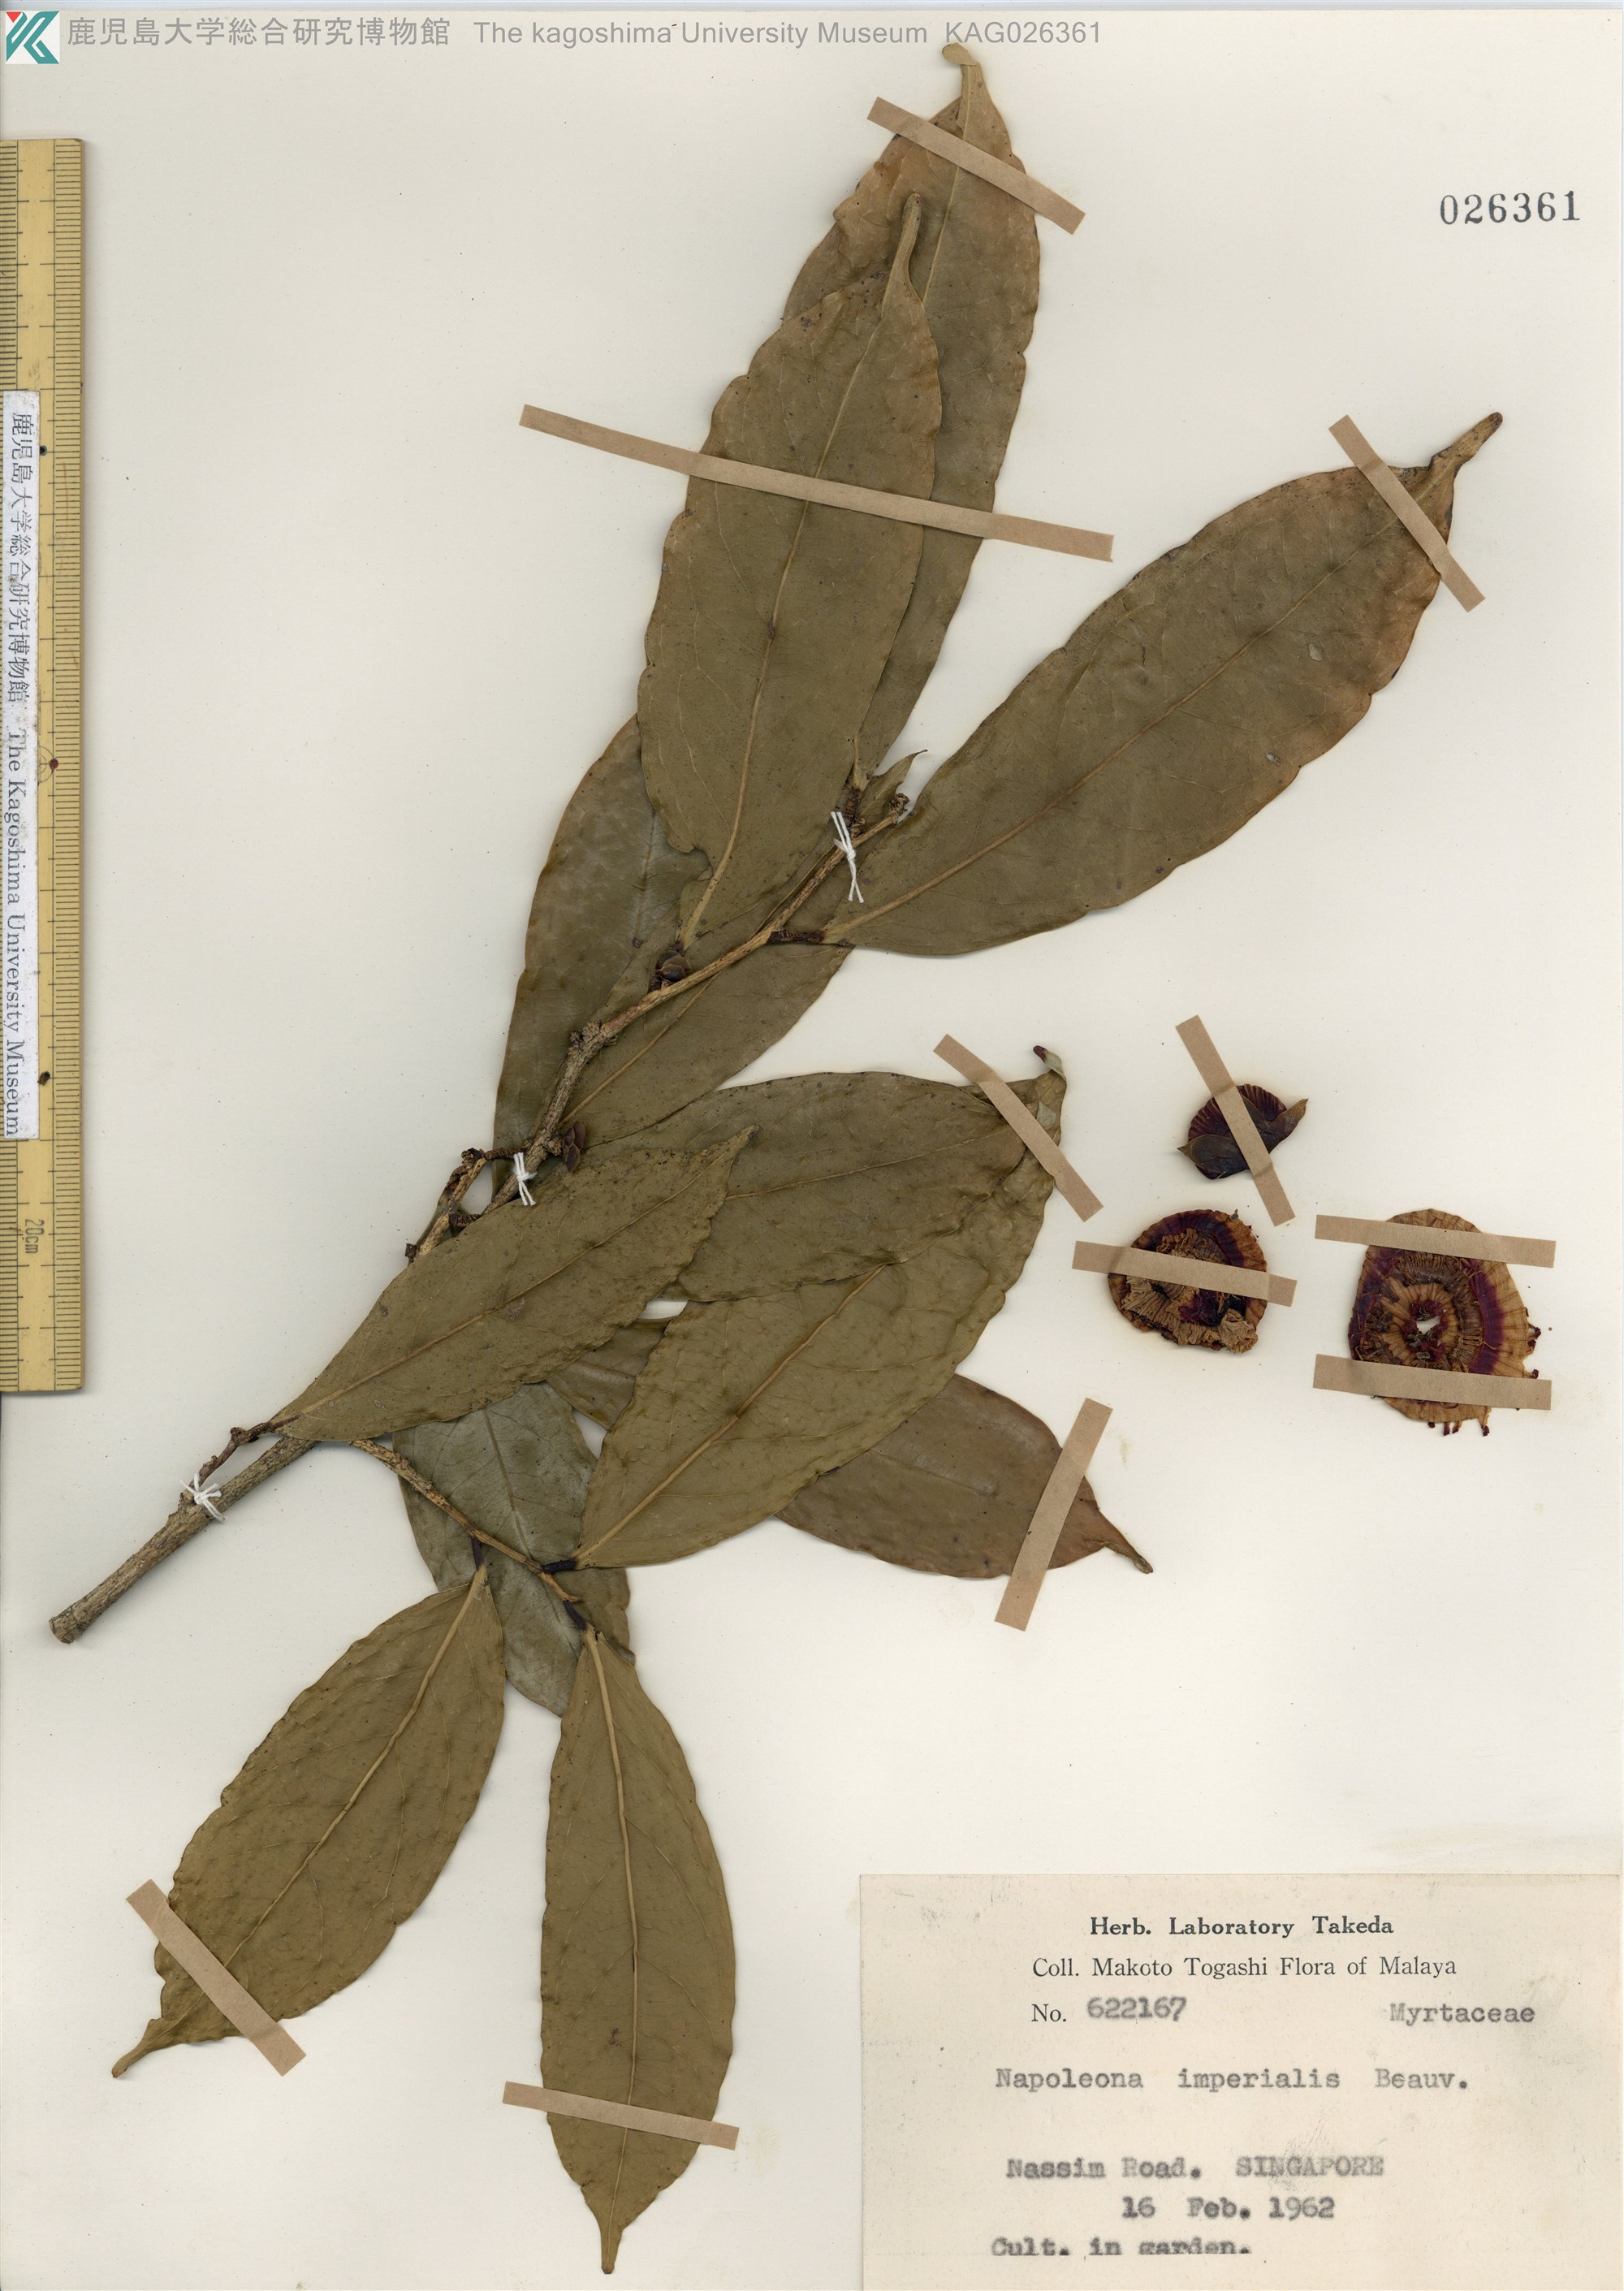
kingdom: Plantae
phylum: Tracheophyta
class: Magnoliopsida
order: Ericales
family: Lecythidaceae
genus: Napoleonaea
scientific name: Napoleonaea imperialis
